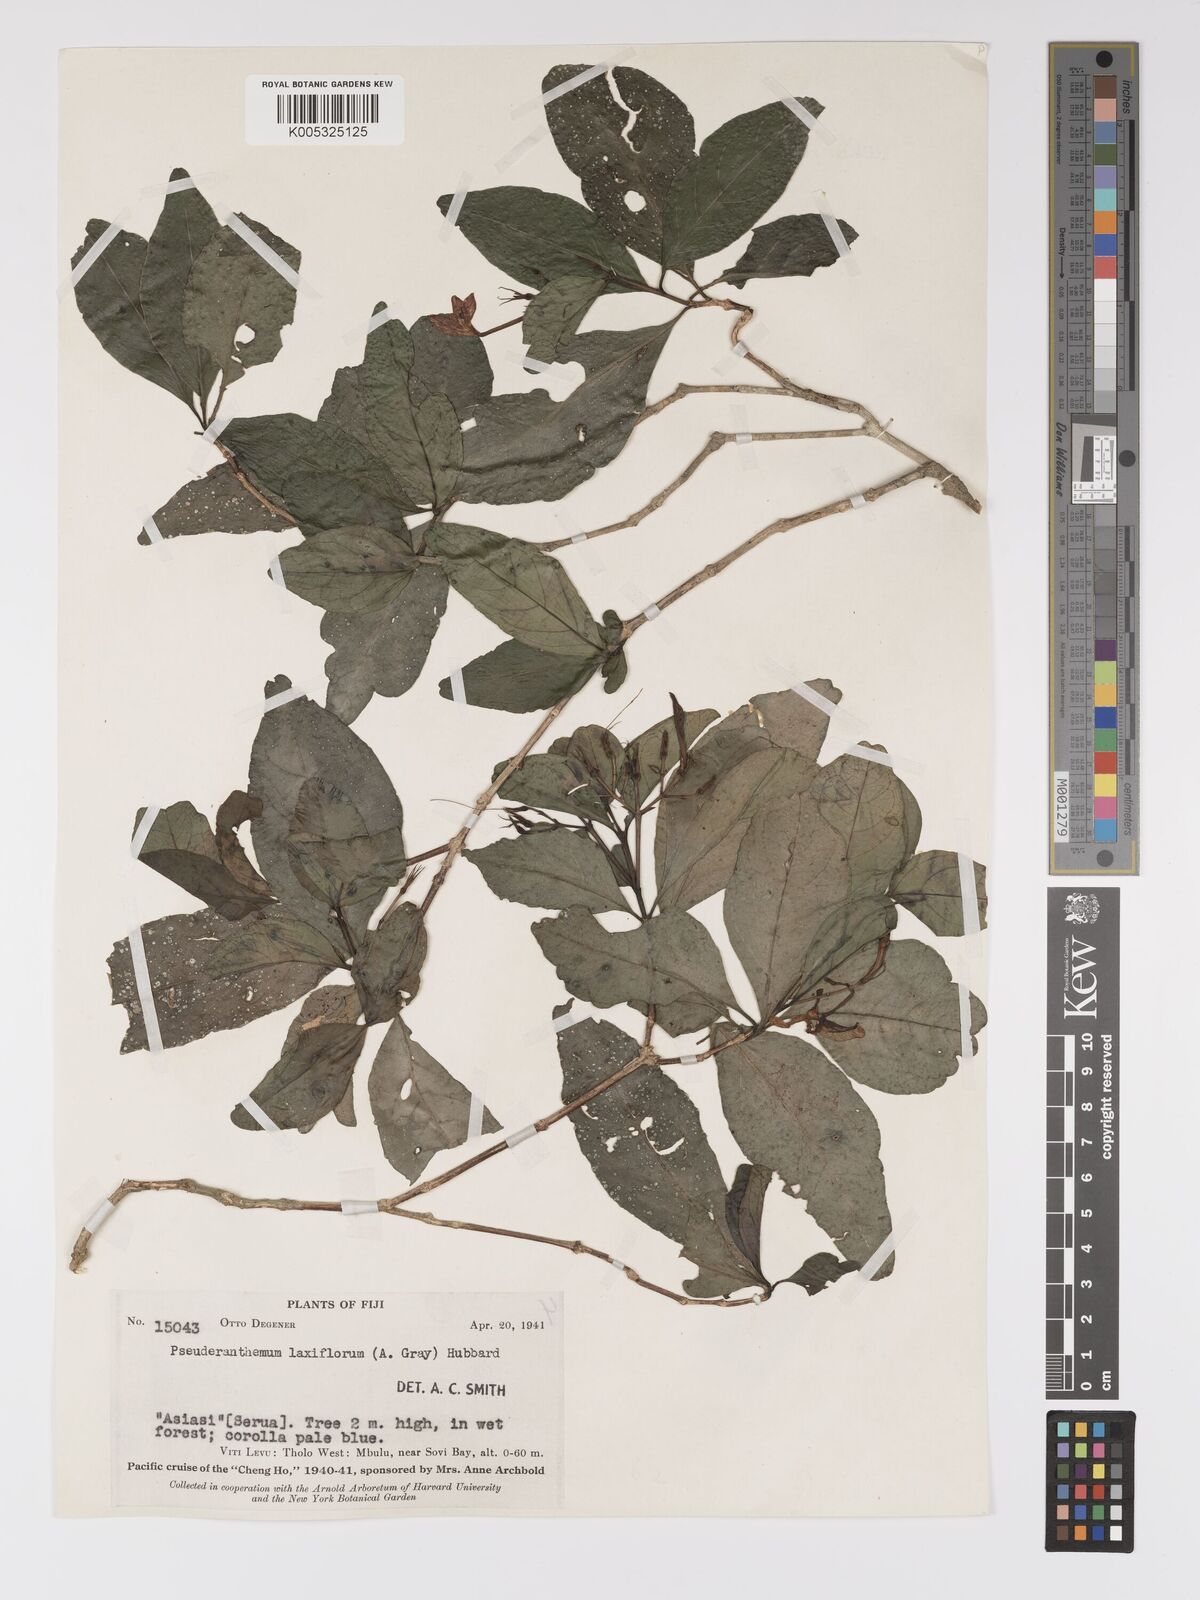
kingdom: Plantae
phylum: Tracheophyta
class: Magnoliopsida
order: Lamiales
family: Acanthaceae
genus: Pseuderanthemum
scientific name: Pseuderanthemum laxiflorum
